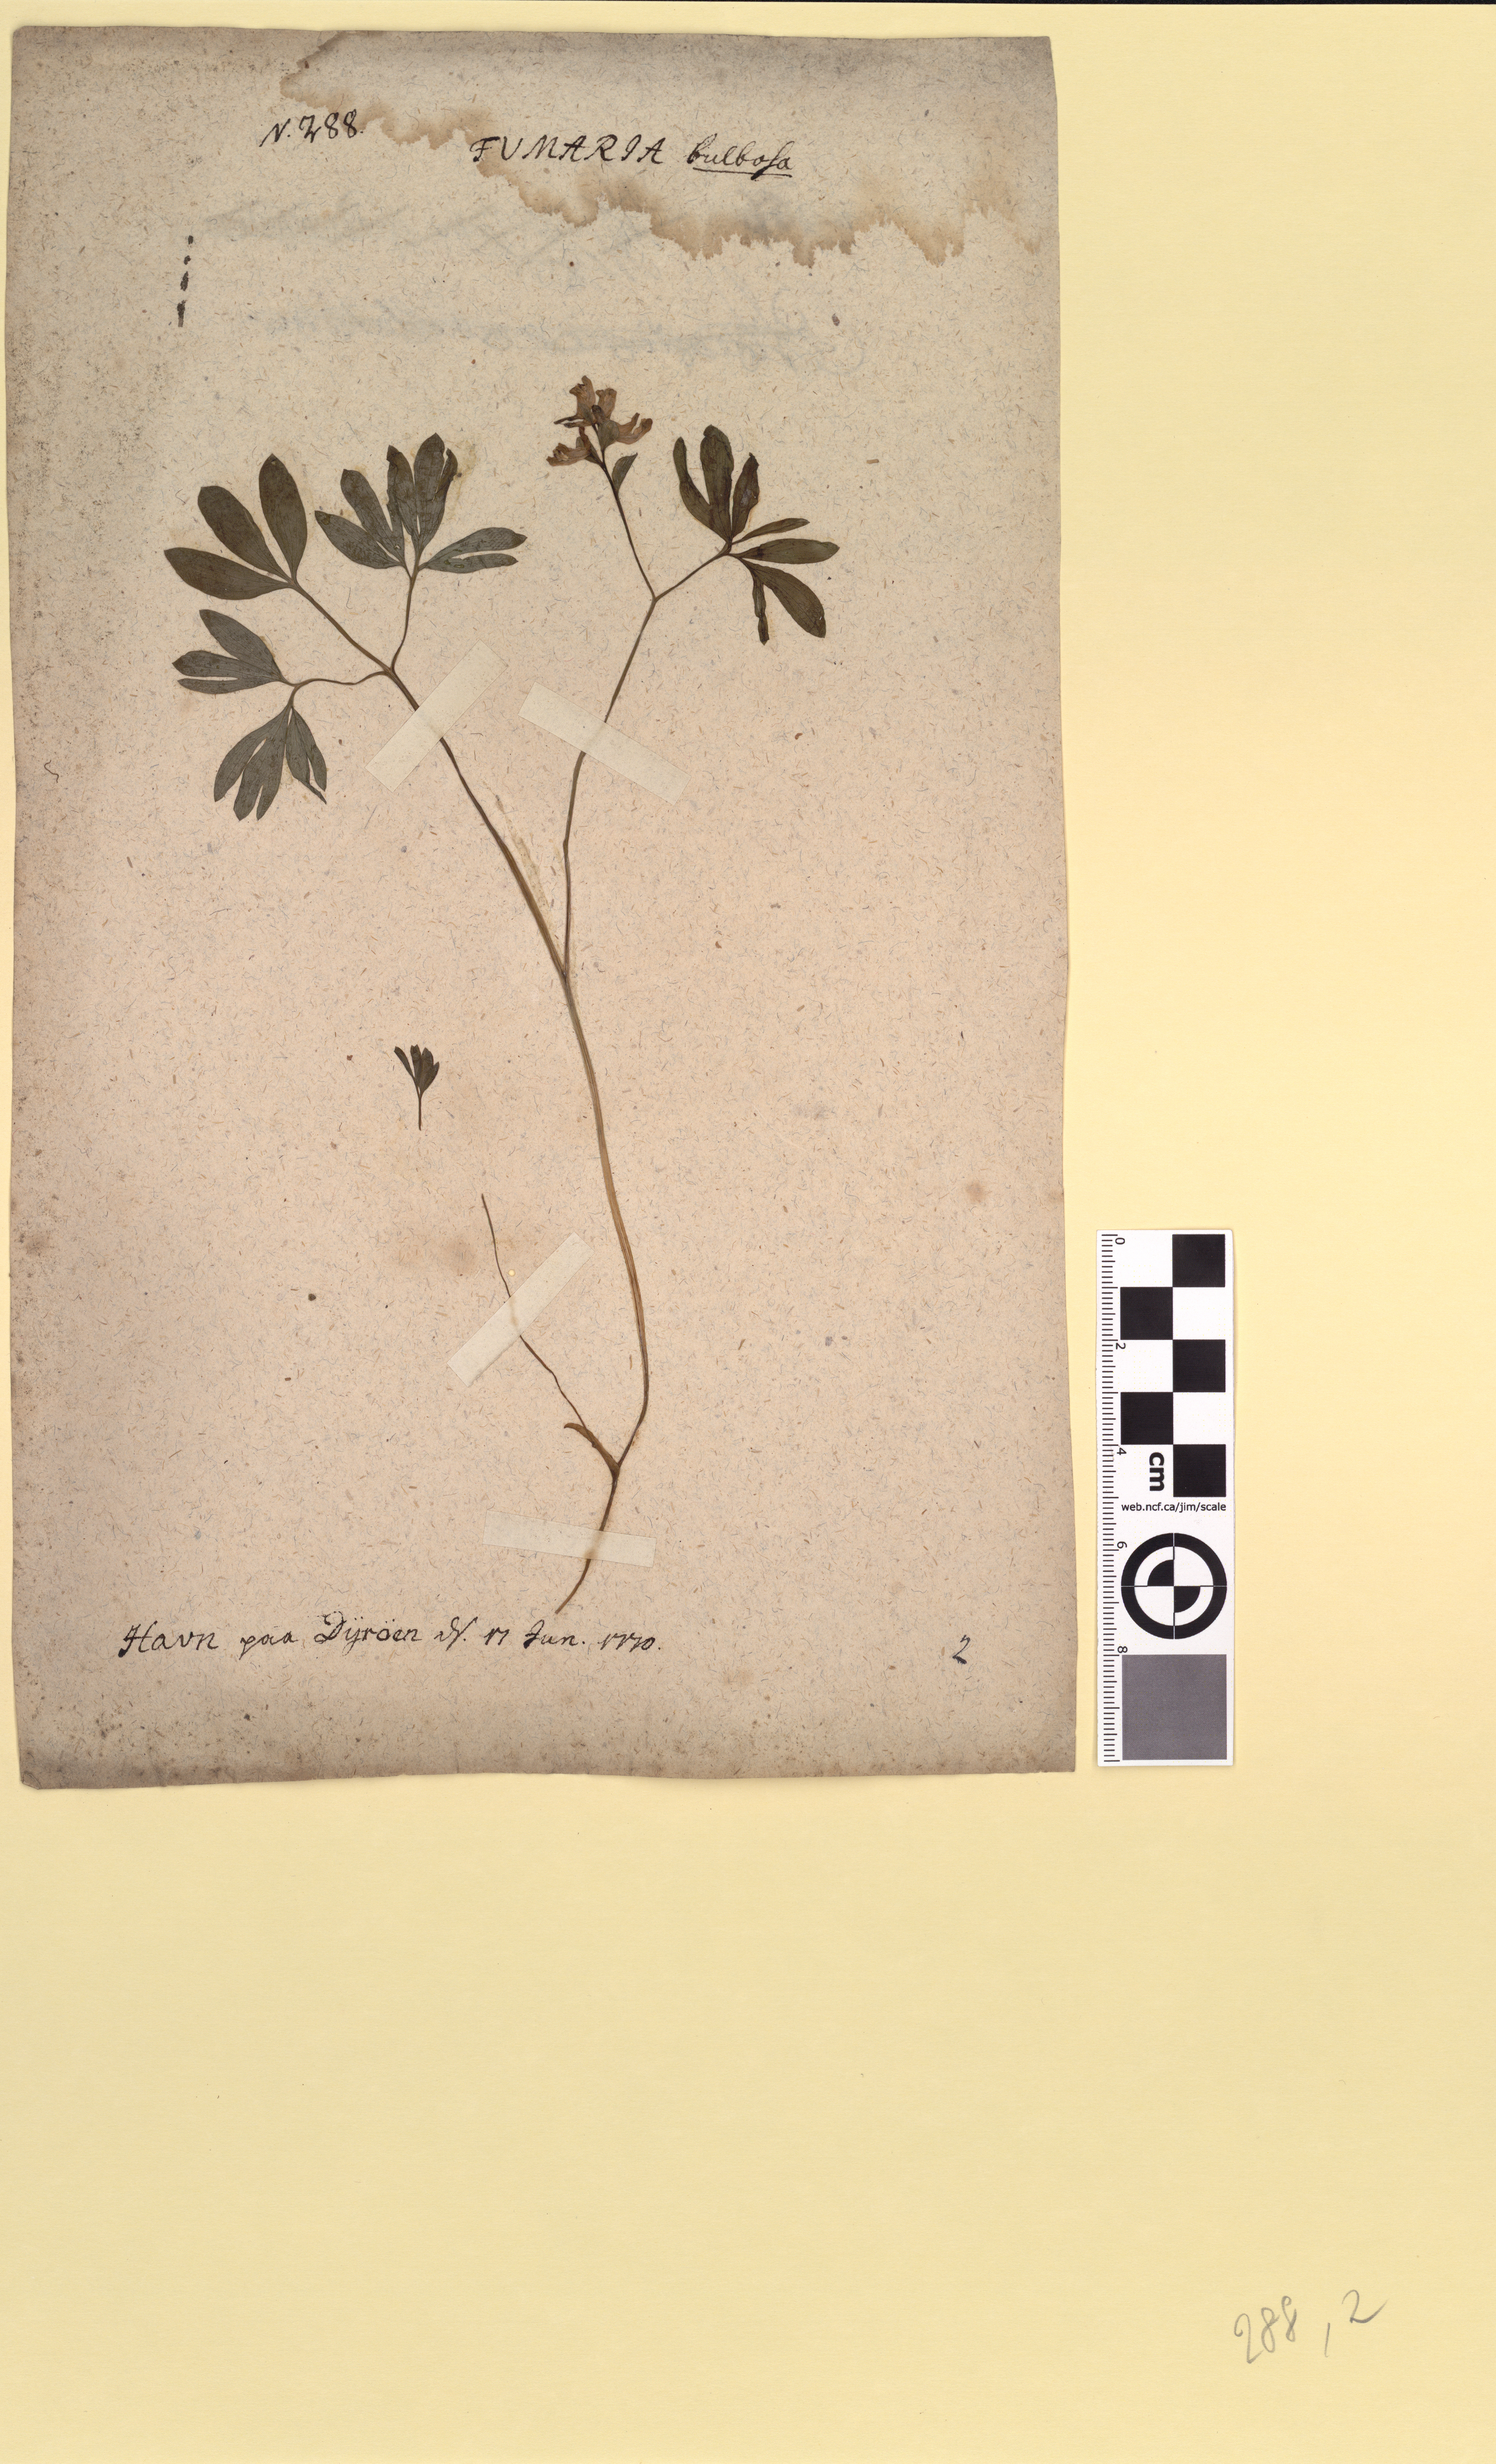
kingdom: Plantae
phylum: Tracheophyta
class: Magnoliopsida
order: Ranunculales
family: Papaveraceae
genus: Corydalis
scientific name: Corydalis intermedia
